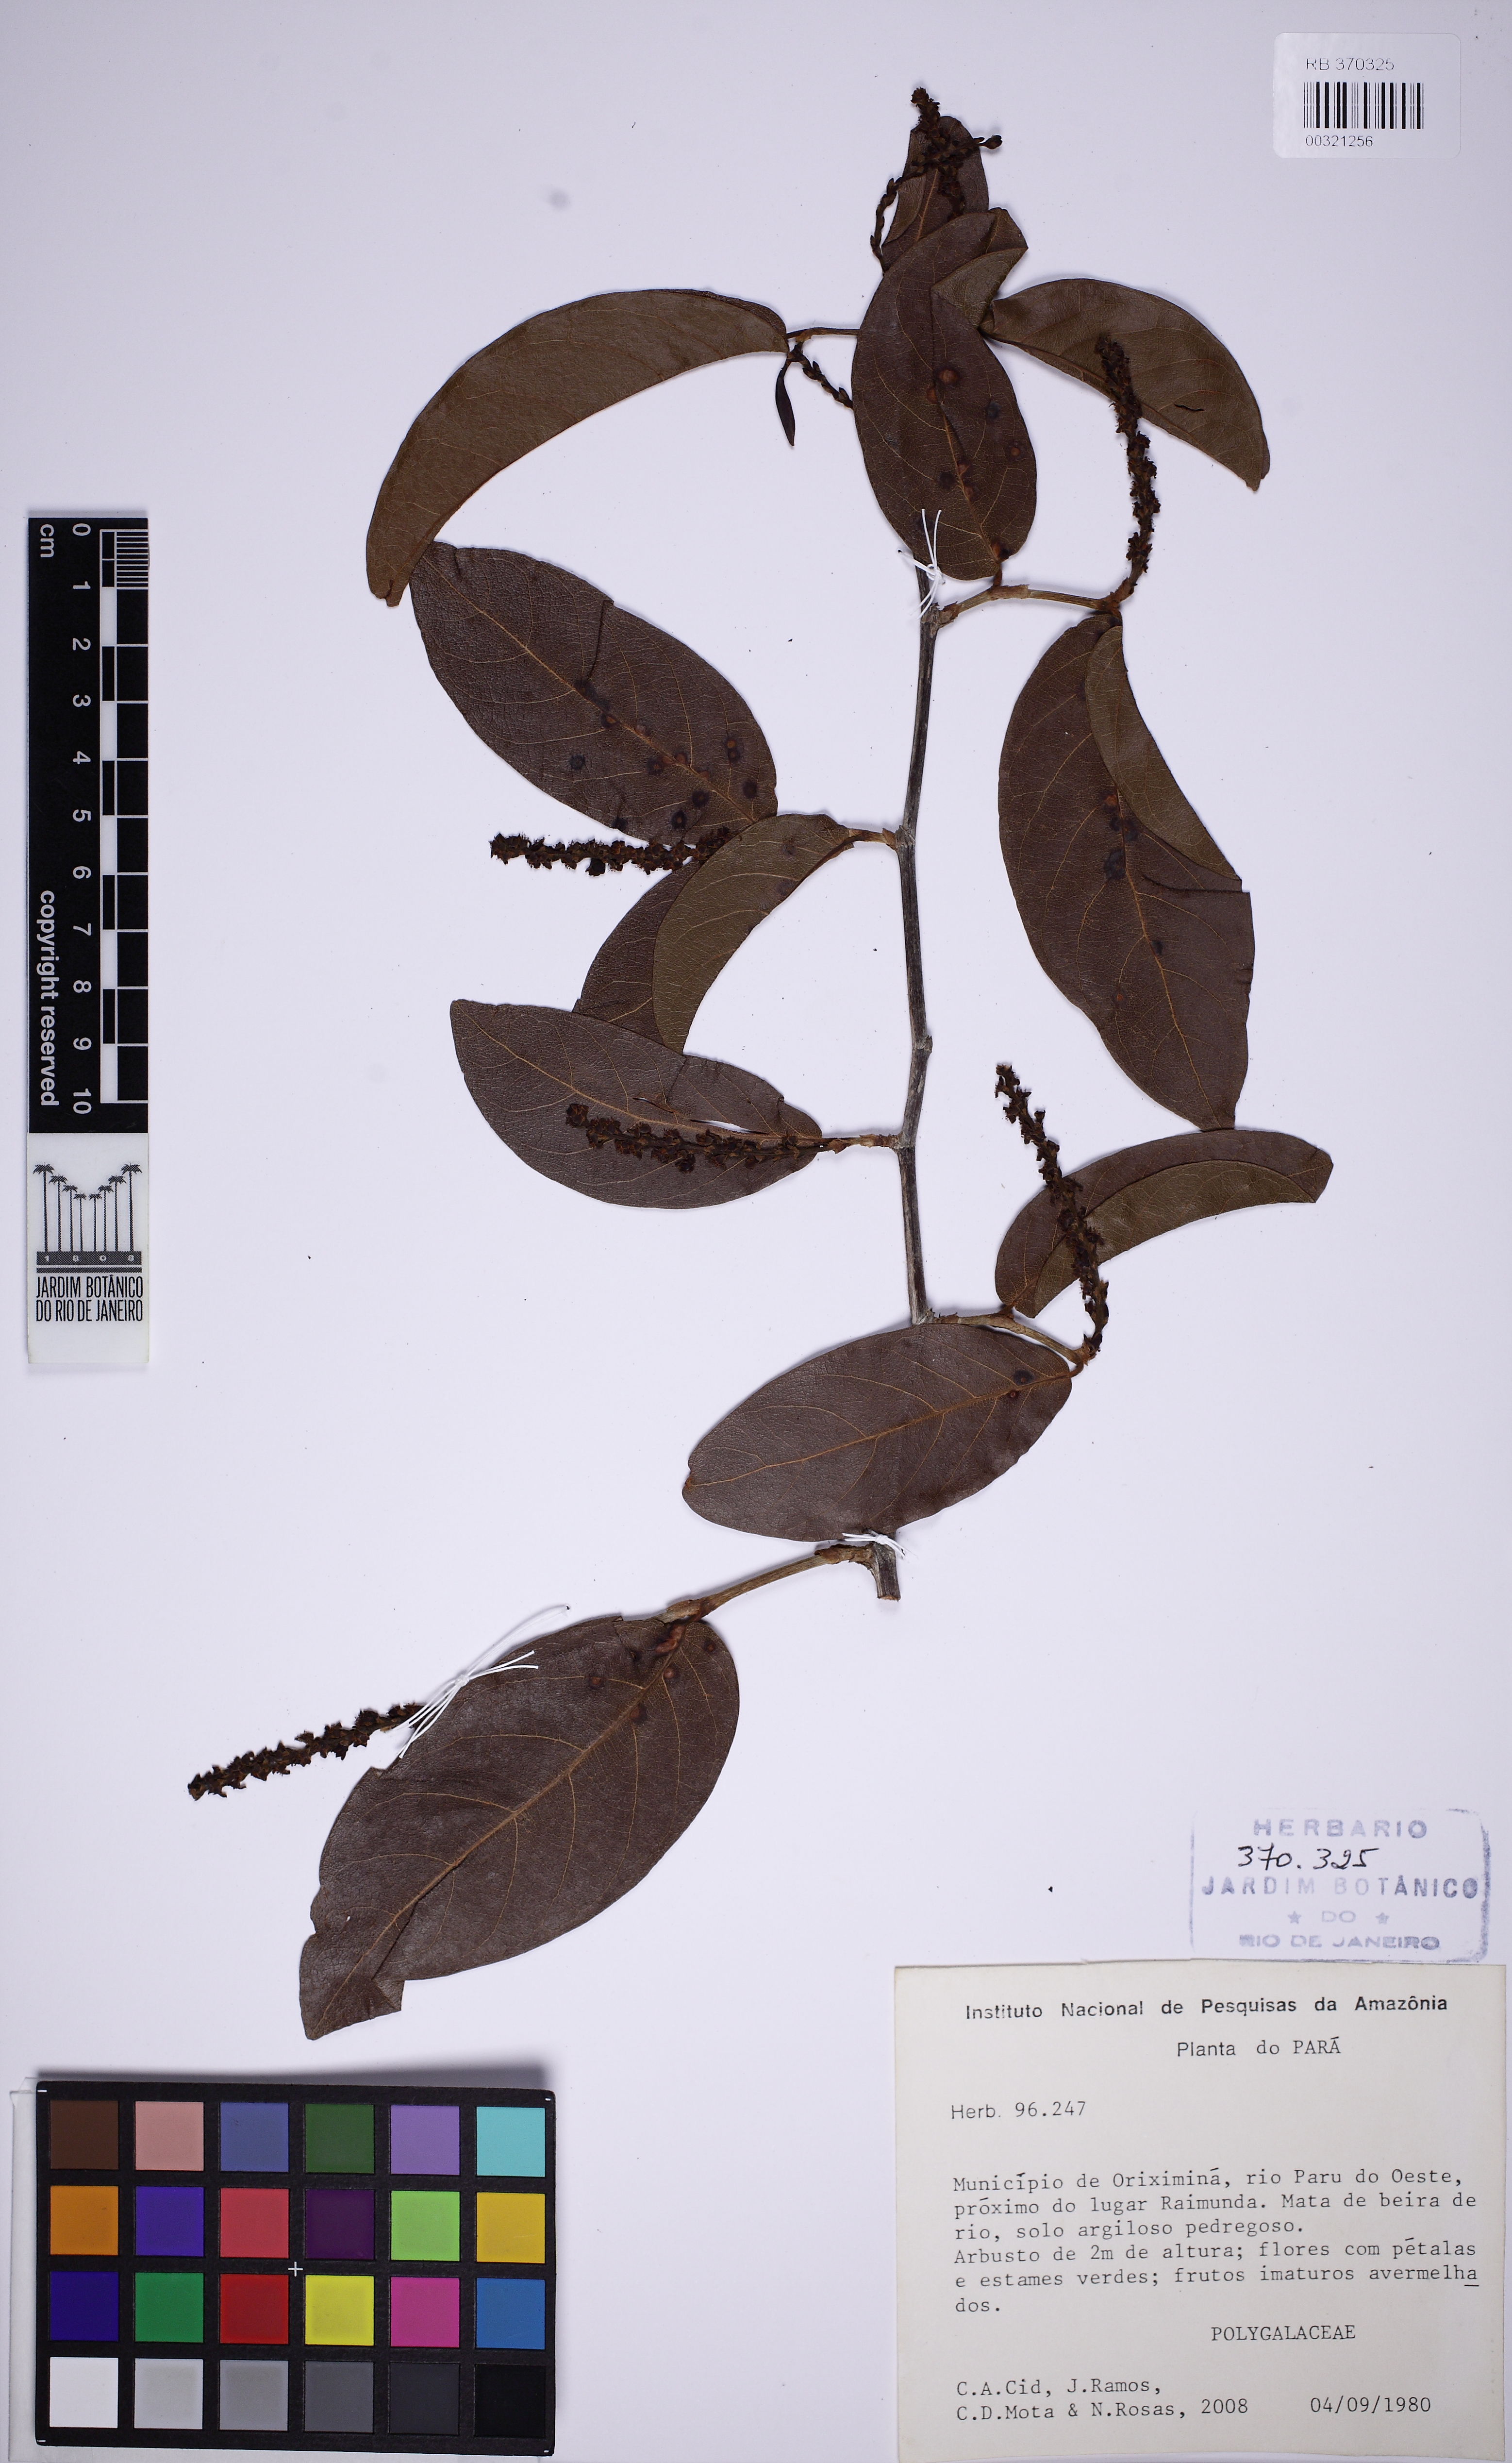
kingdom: Plantae
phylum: Tracheophyta
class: Magnoliopsida
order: Caryophyllales
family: Polygonaceae
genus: Coccoloba
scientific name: Coccoloba ovata
